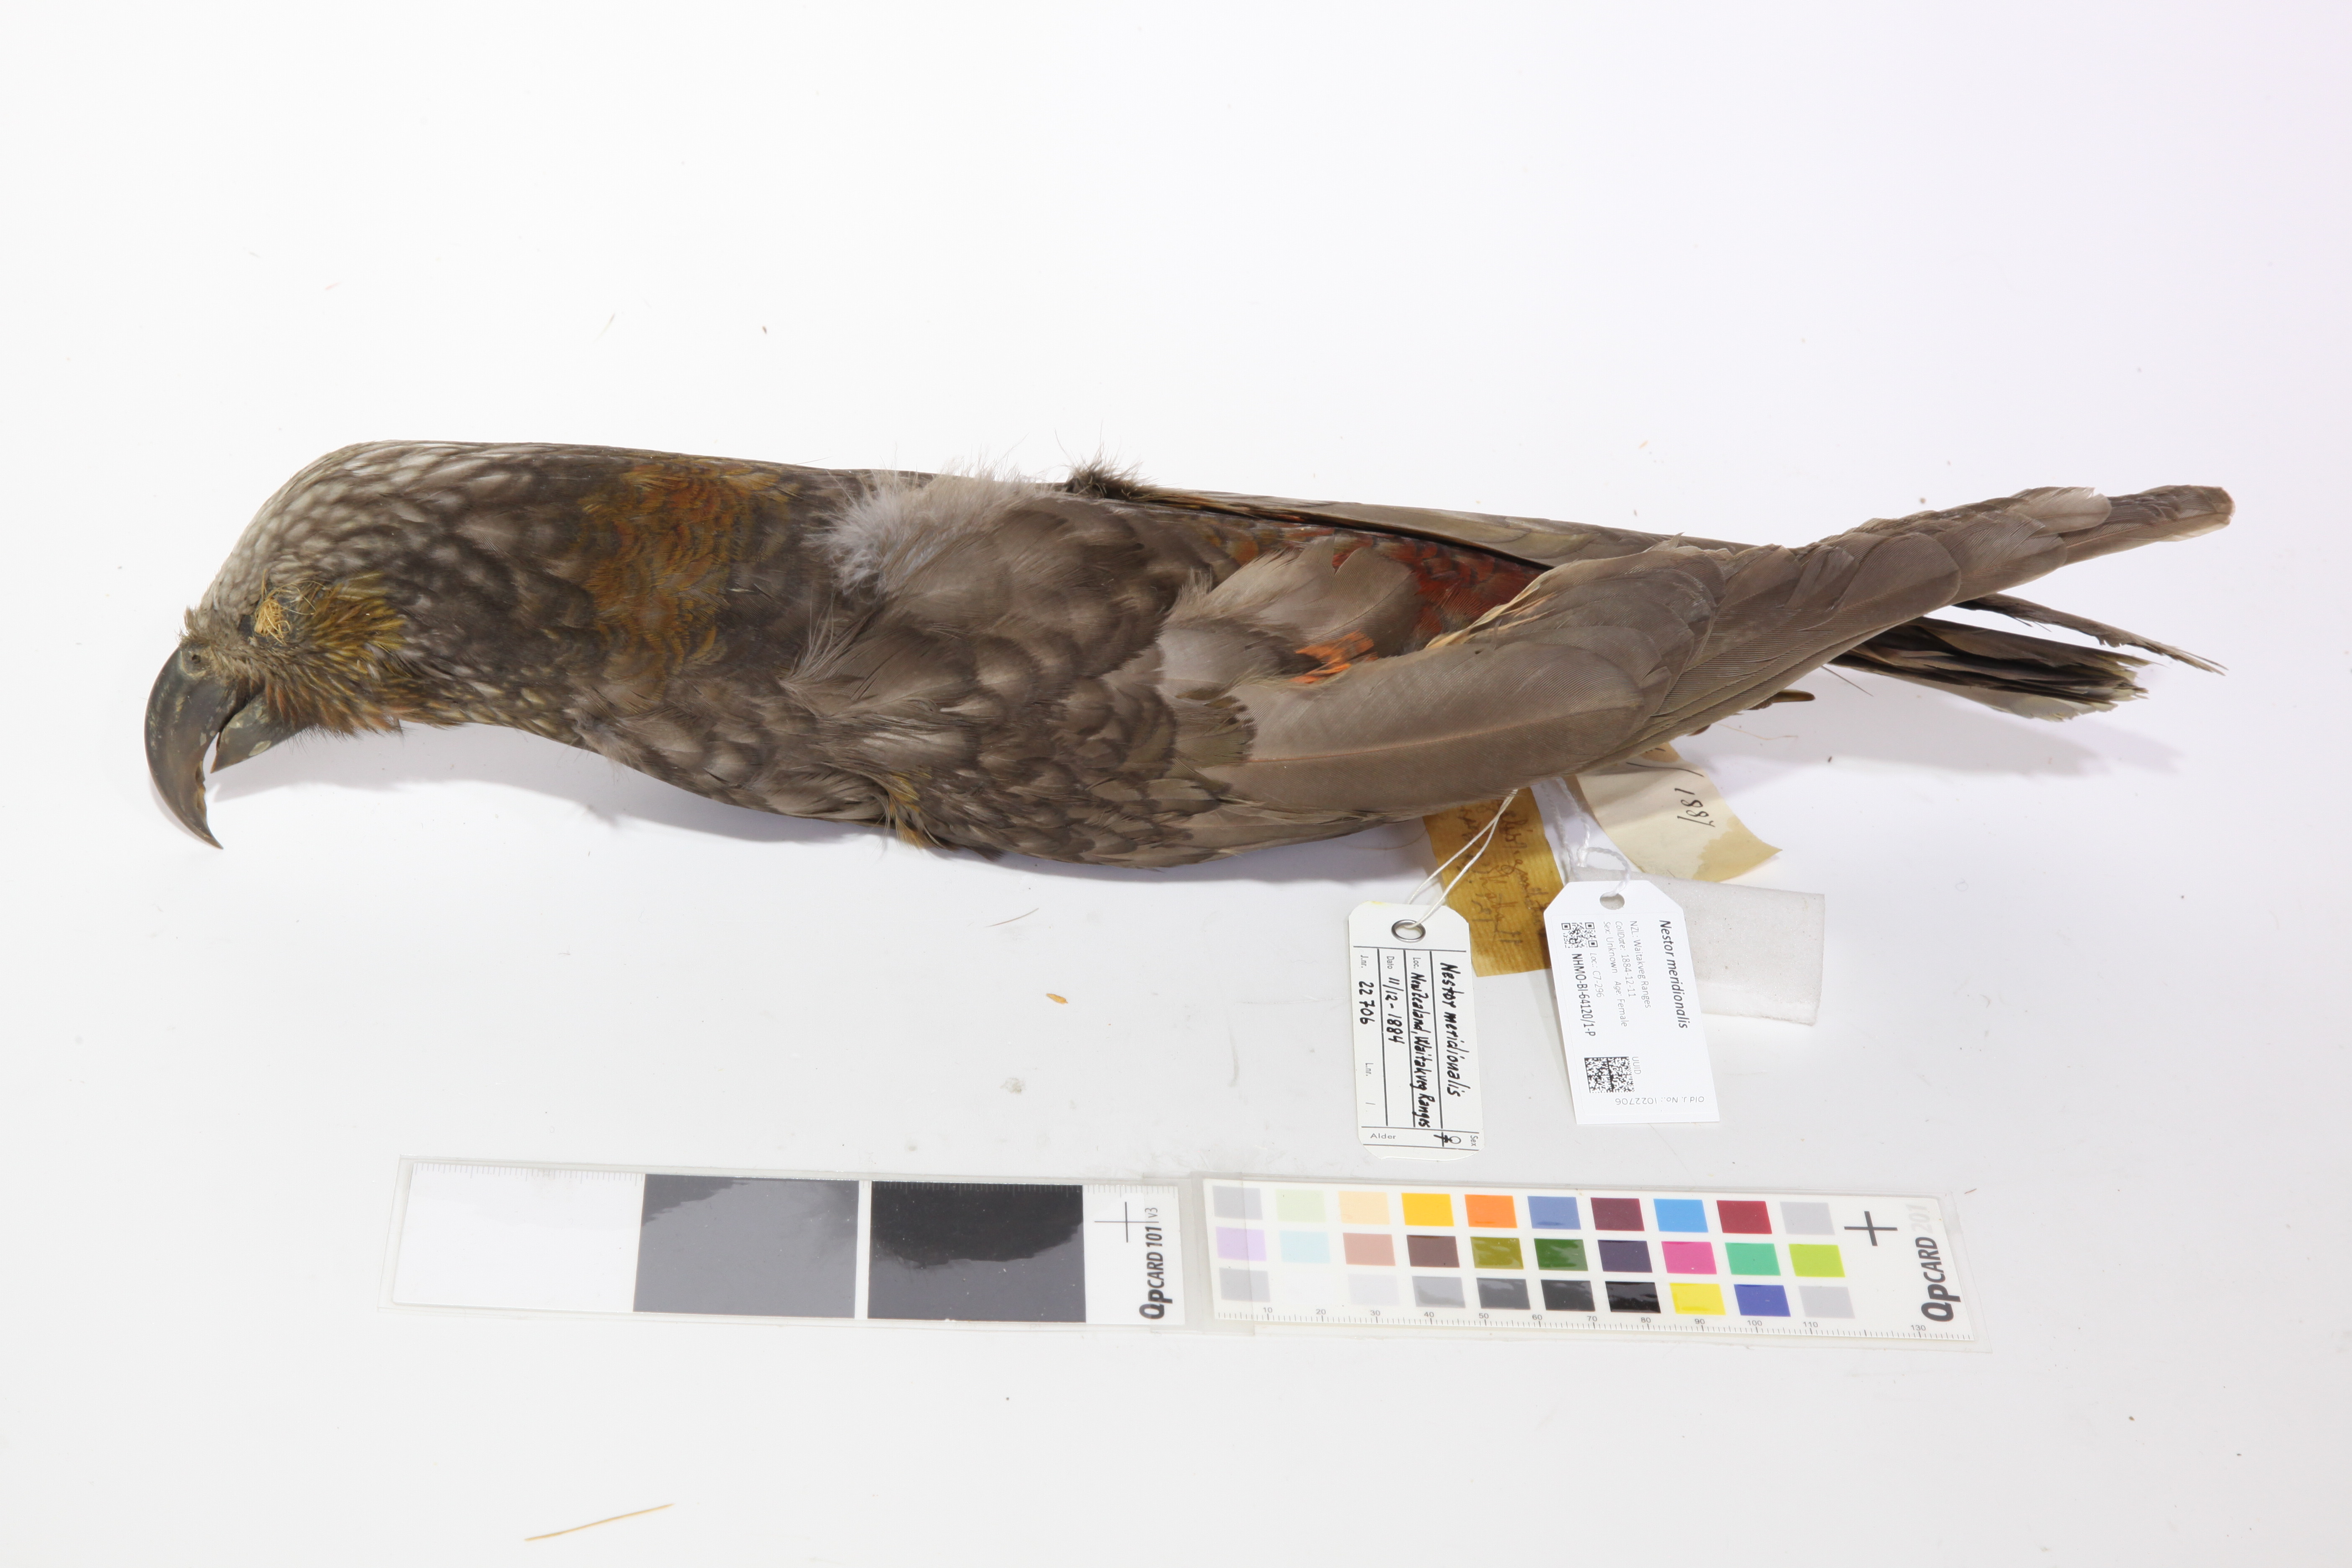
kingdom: Animalia
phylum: Chordata
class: Aves
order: Psittaciformes
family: Psittacidae
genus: Nestor
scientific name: Nestor meridionalis
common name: New zealand kaka
